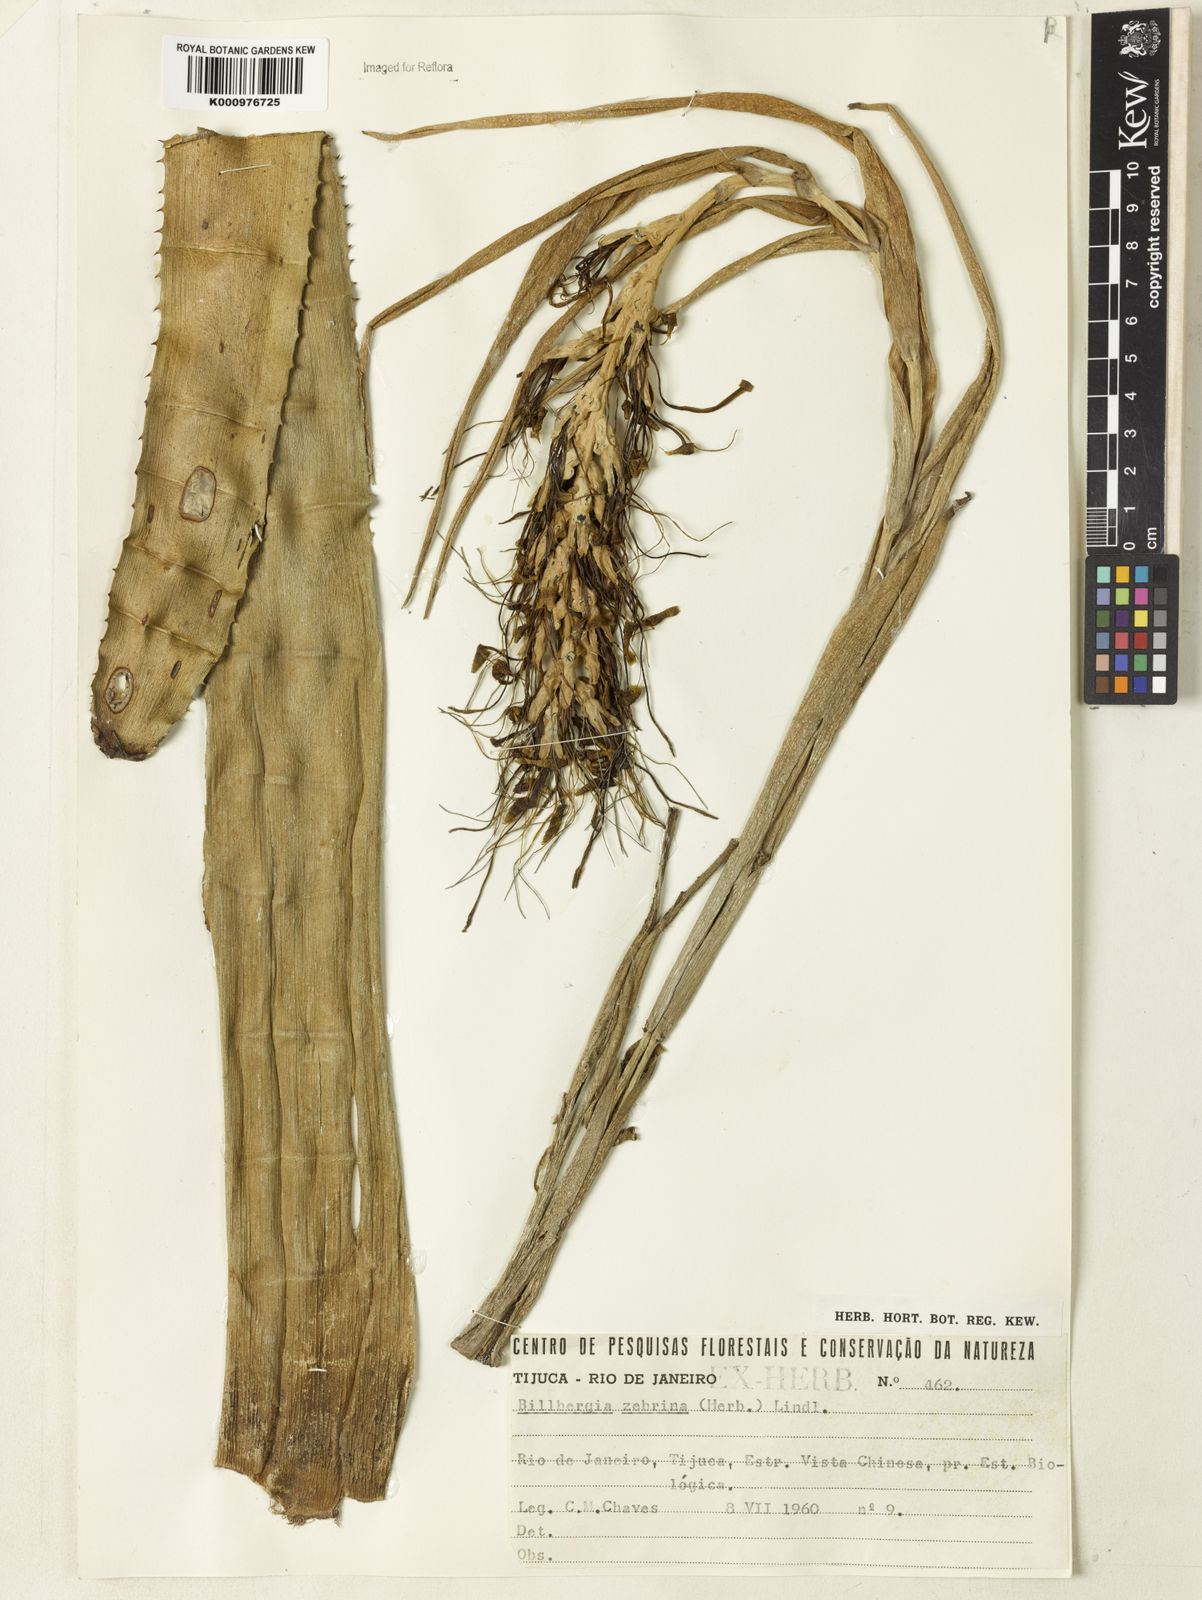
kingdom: Plantae
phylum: Tracheophyta
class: Liliopsida
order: Poales
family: Bromeliaceae
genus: Billbergia
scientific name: Billbergia zebrina
